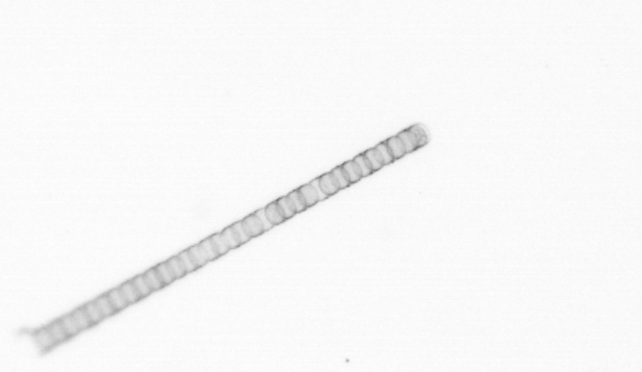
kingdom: Chromista
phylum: Ochrophyta
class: Bacillariophyceae
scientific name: Bacillariophyceae
